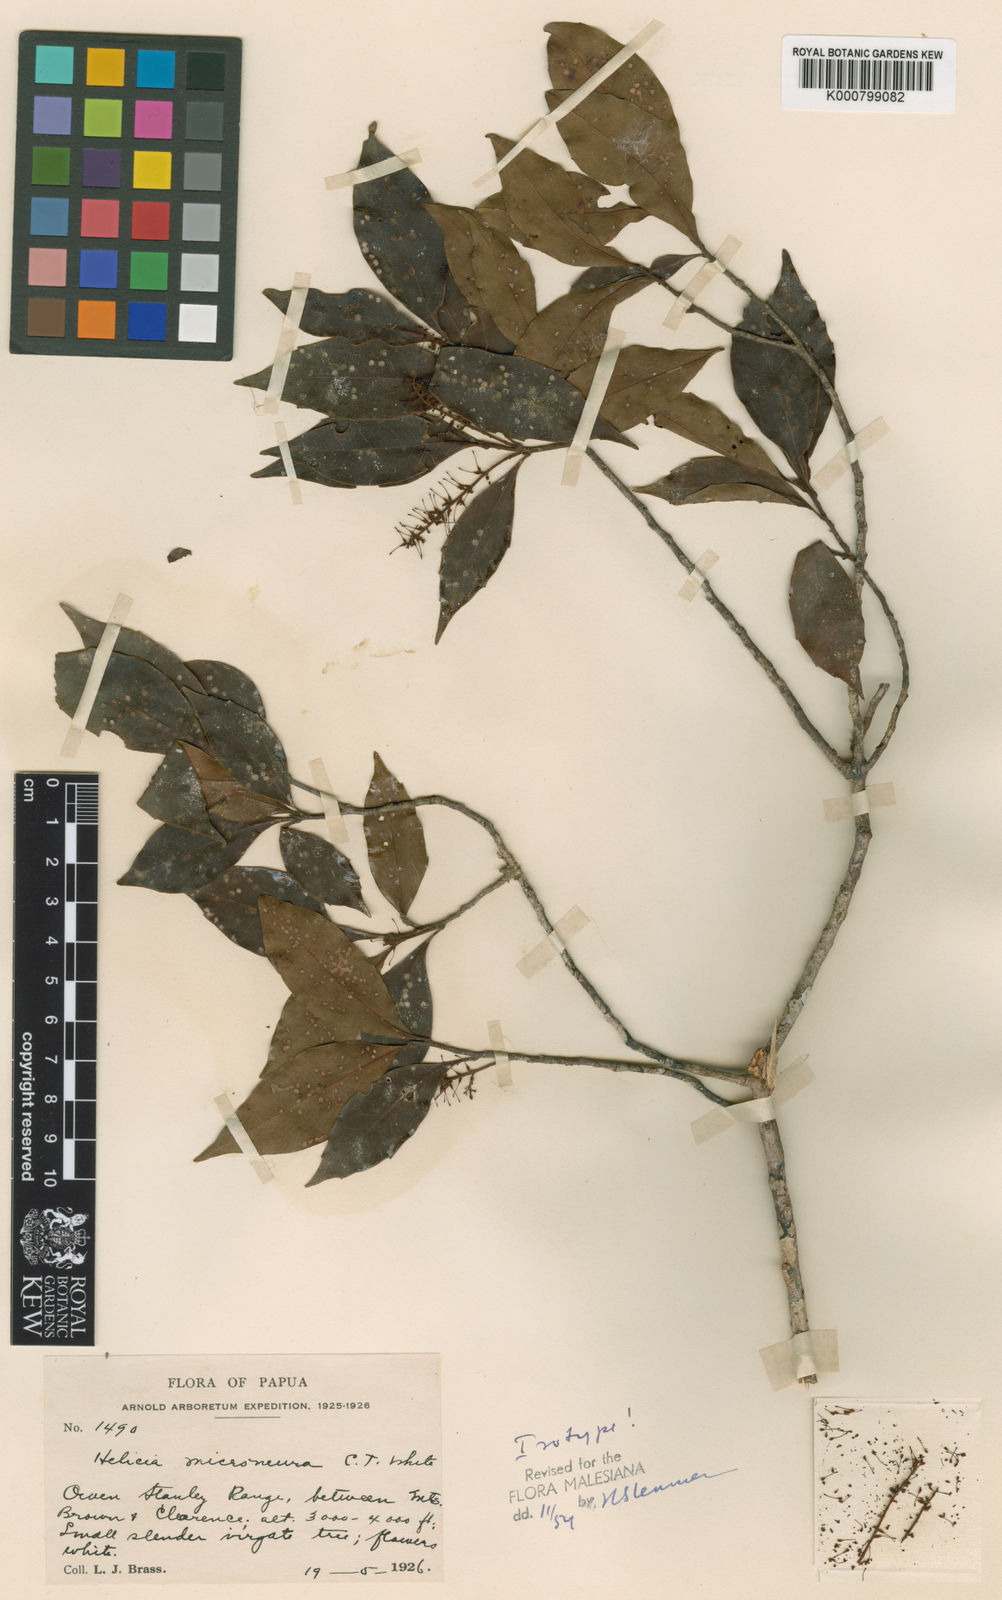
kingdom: Plantae
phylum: Tracheophyta
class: Magnoliopsida
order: Proteales
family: Proteaceae
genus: Helicia
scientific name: Helicia microneura
